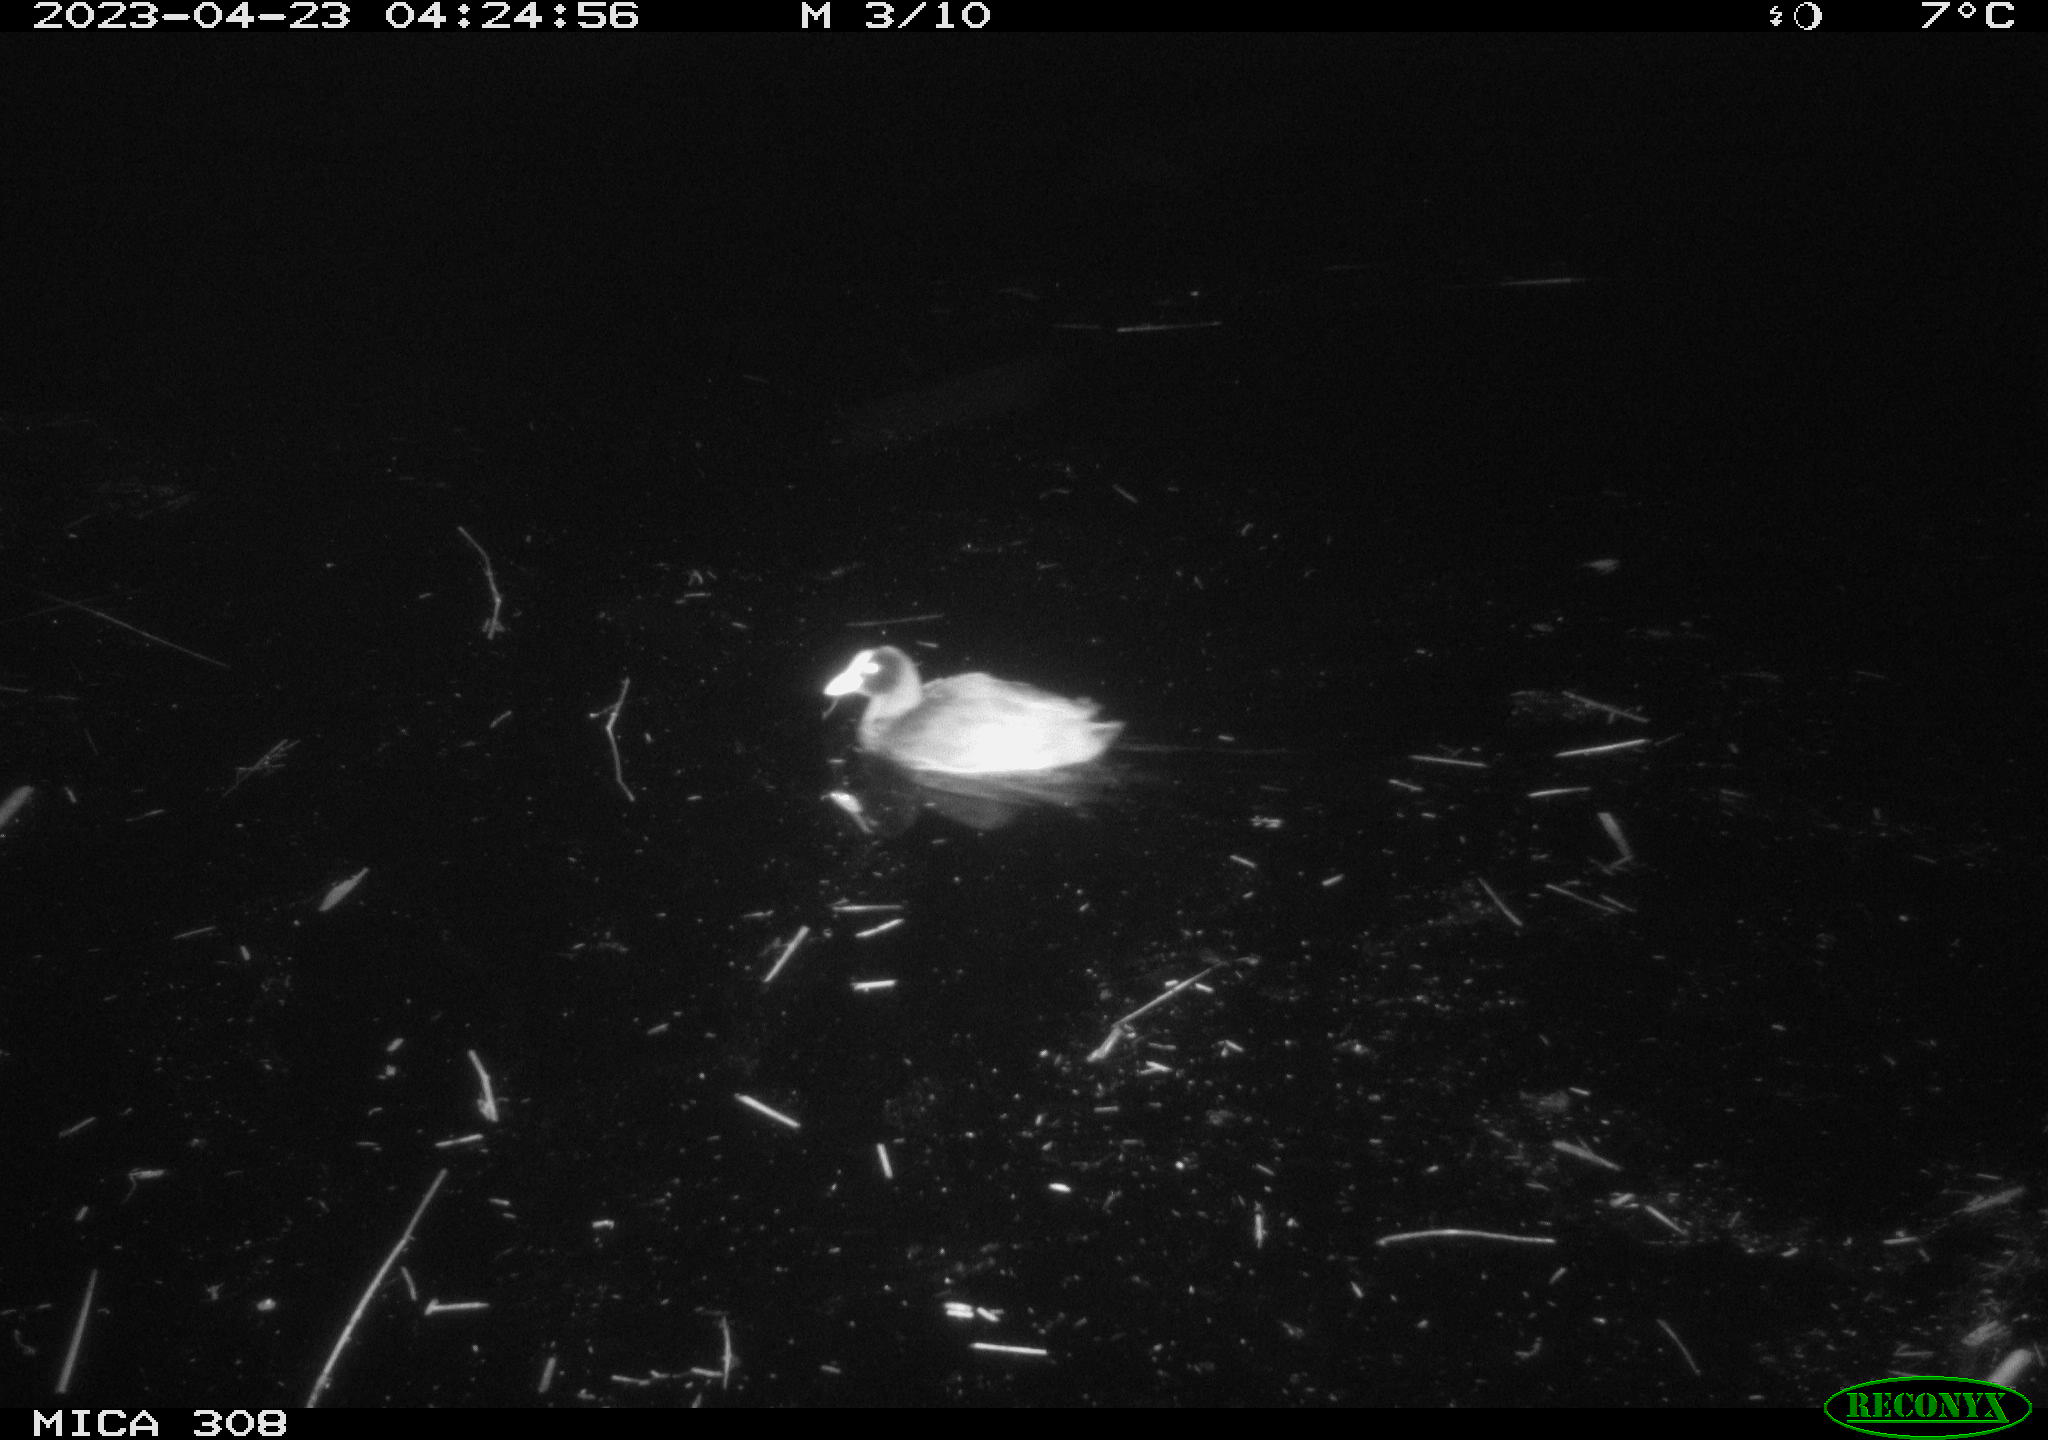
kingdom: Animalia
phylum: Chordata
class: Aves
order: Gruiformes
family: Rallidae
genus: Fulica
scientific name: Fulica atra
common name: Eurasian coot
